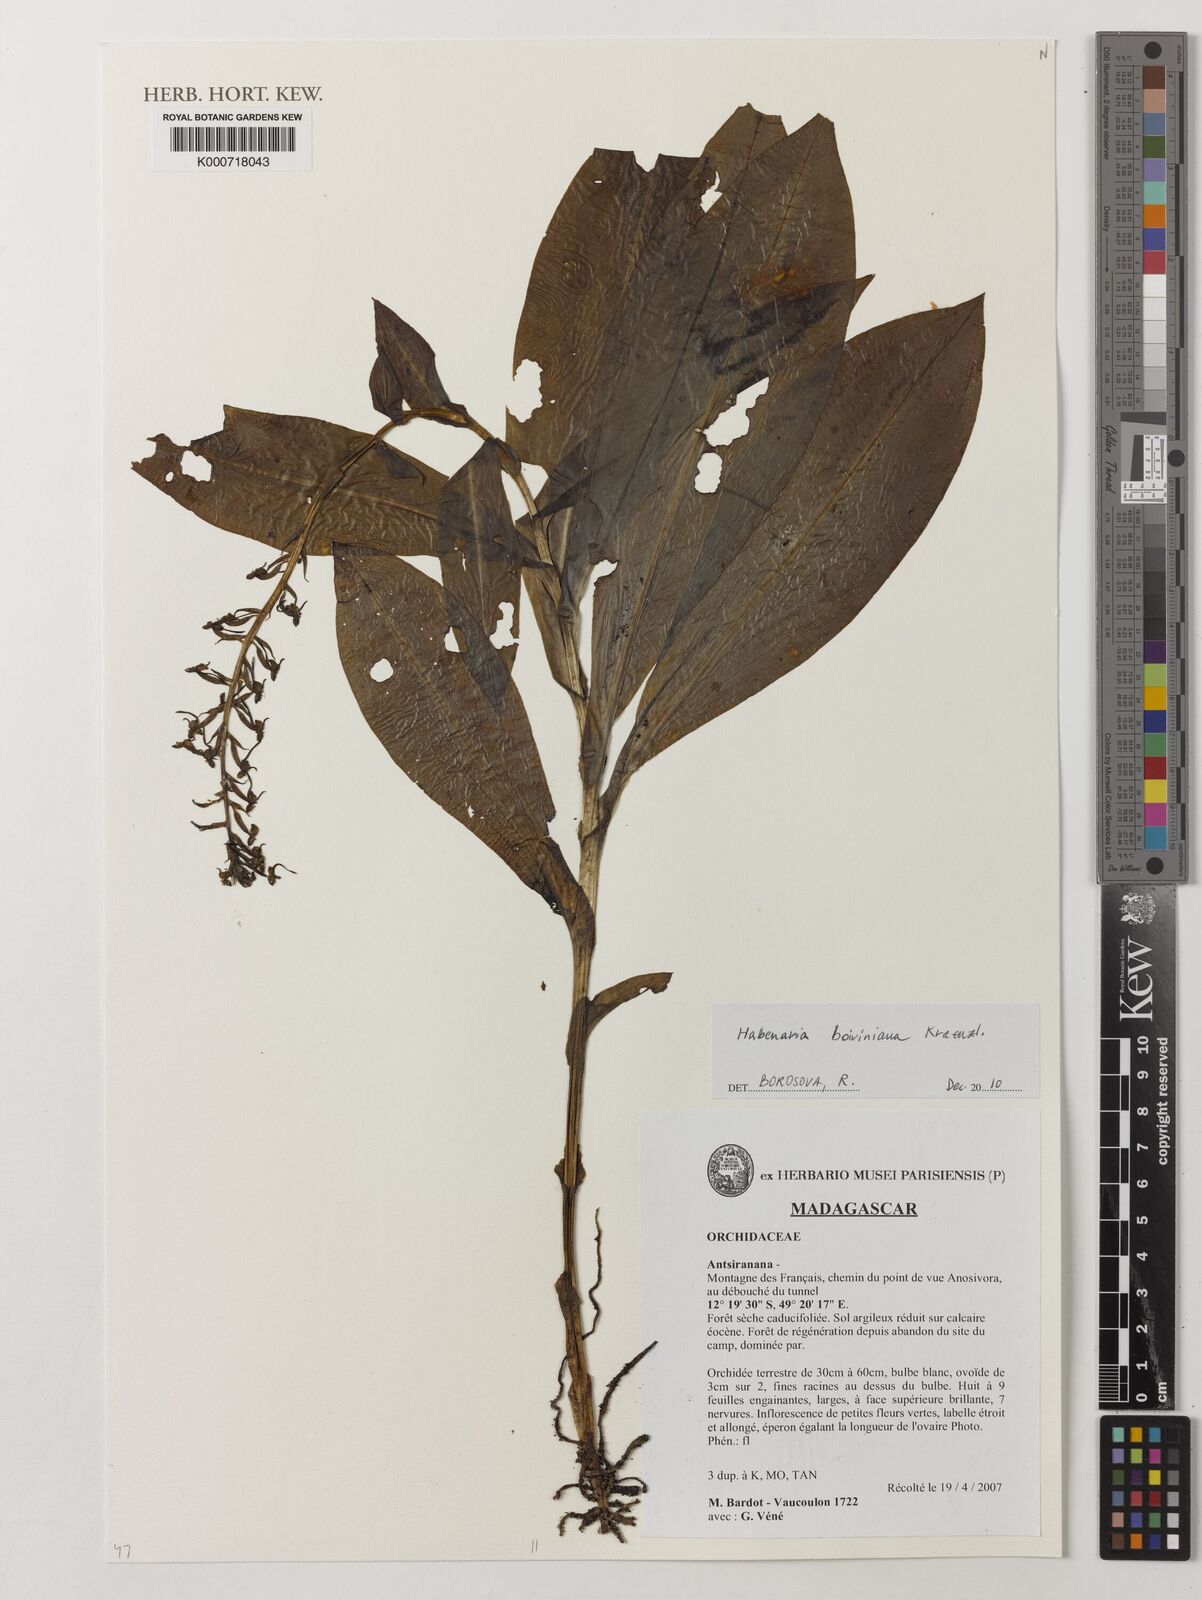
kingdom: Plantae
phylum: Tracheophyta
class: Liliopsida
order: Asparagales
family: Orchidaceae
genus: Habenaria
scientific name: Habenaria boiviniana
